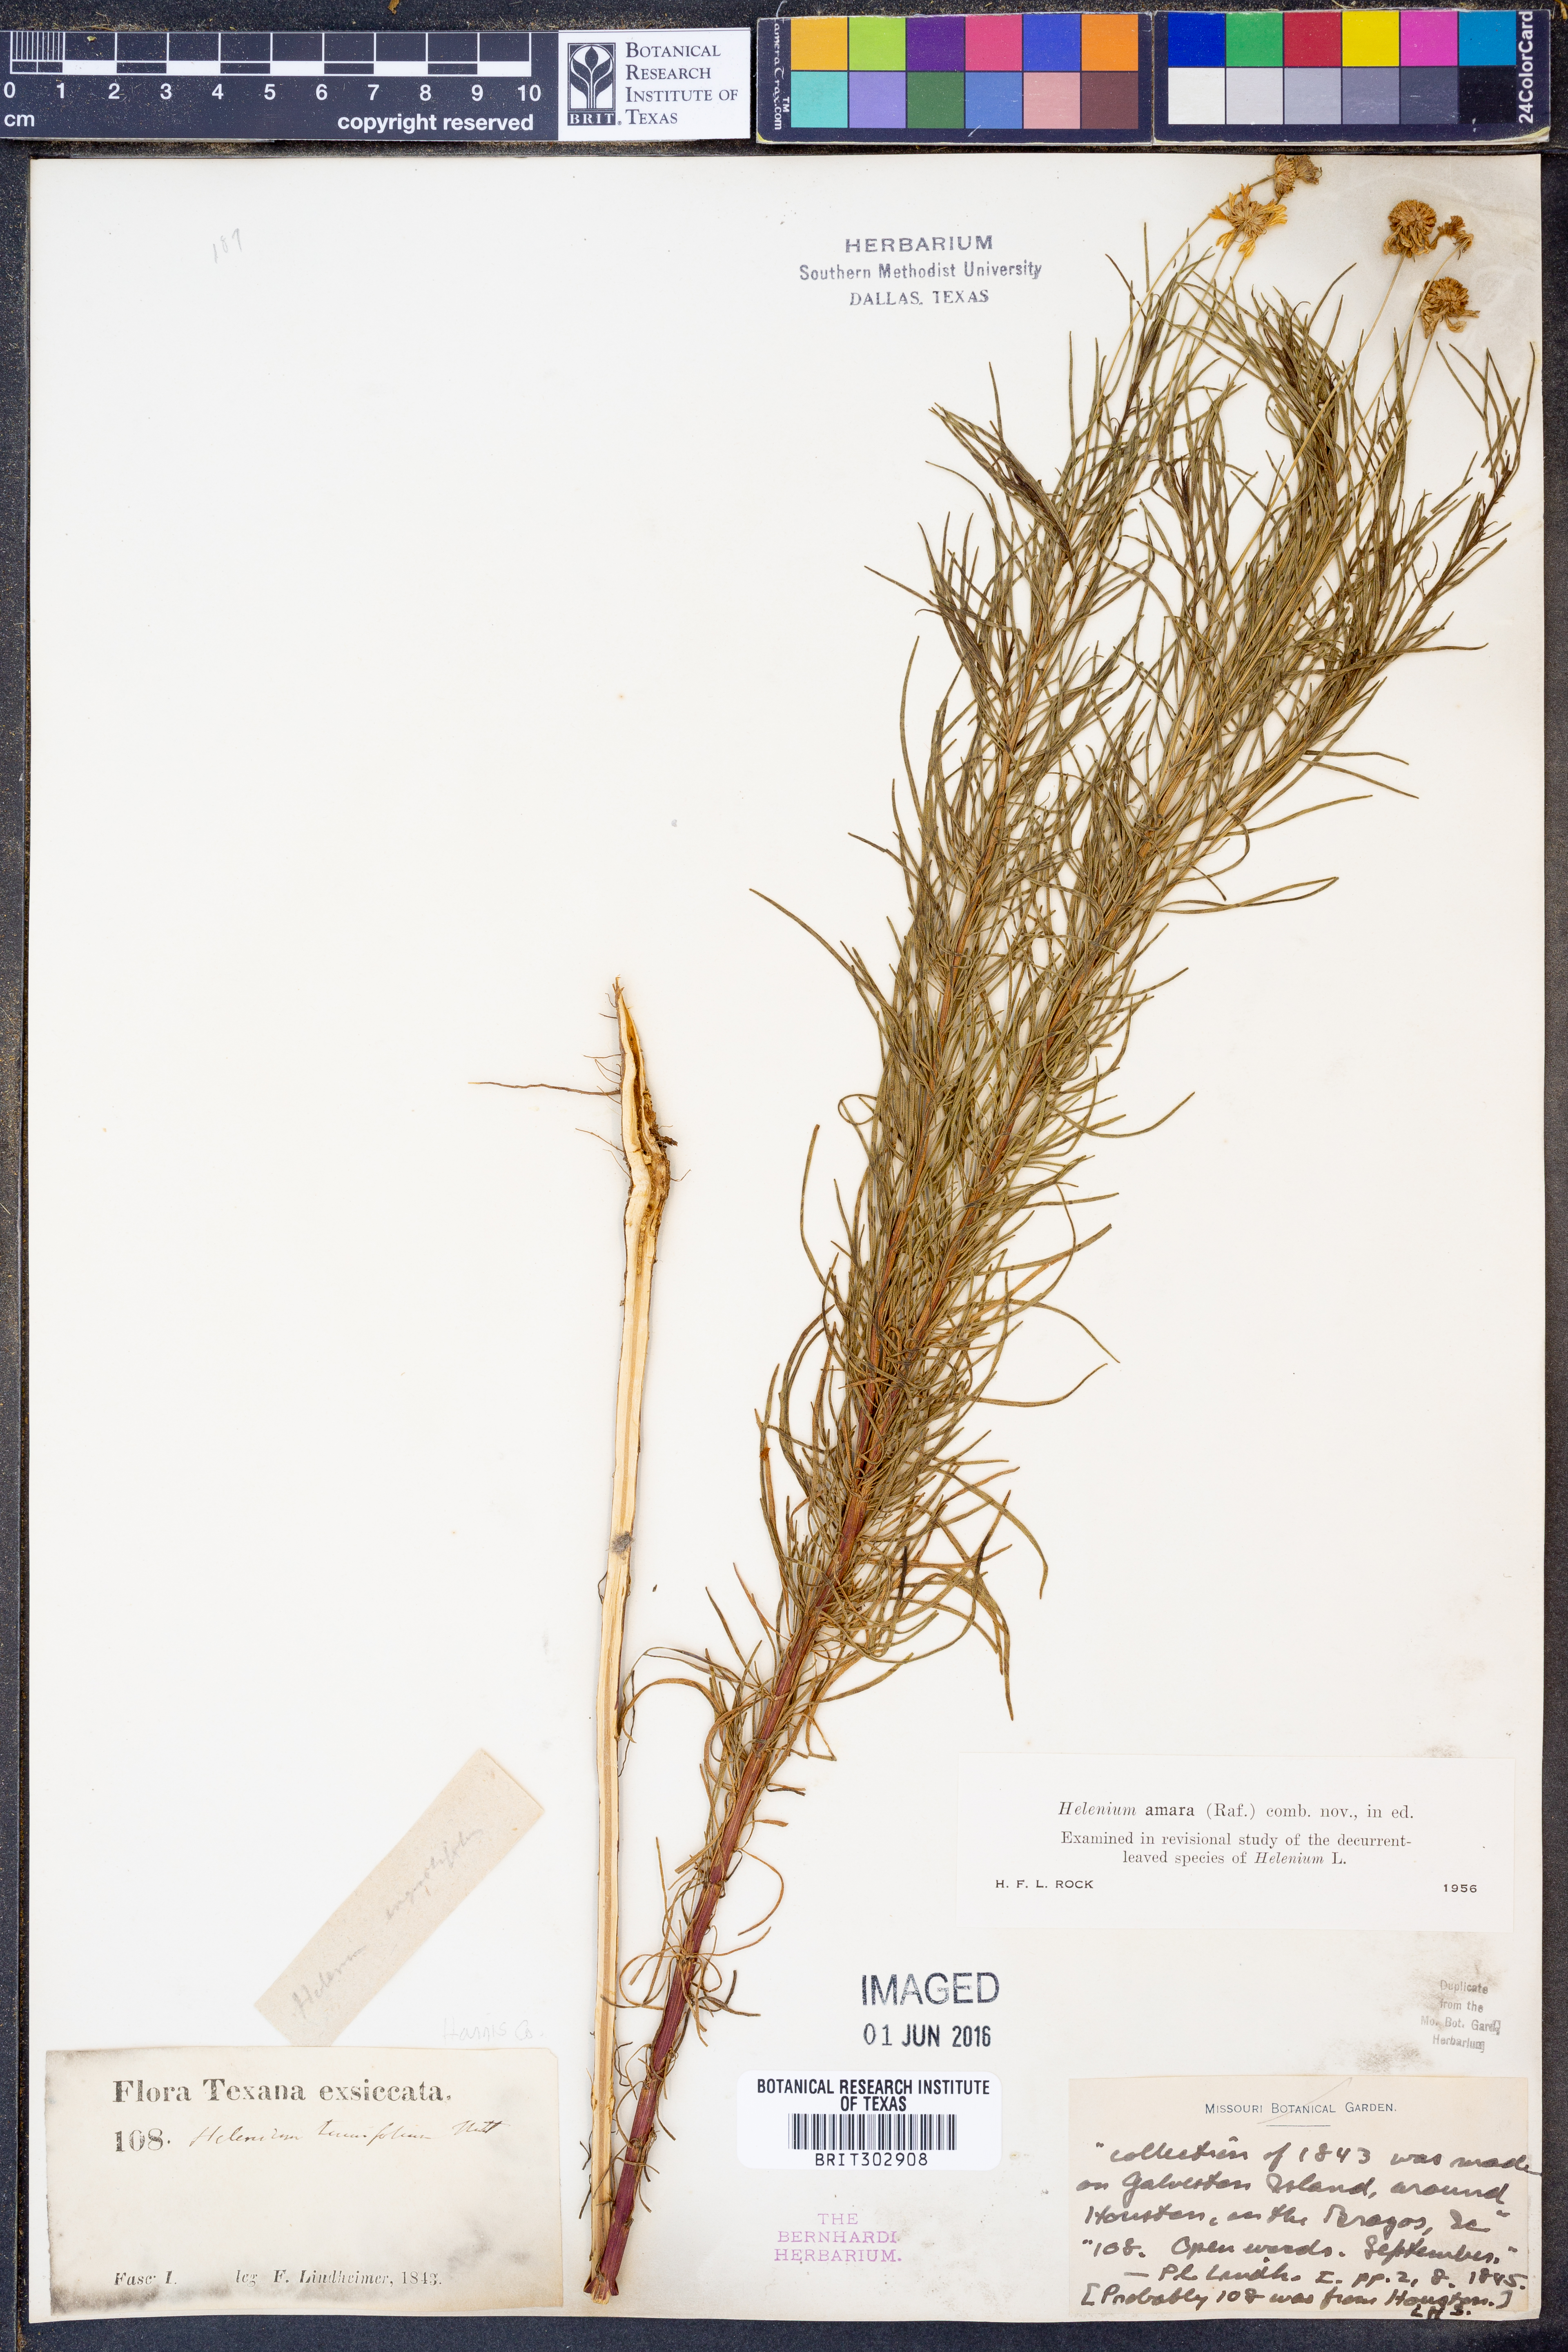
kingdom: Plantae
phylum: Tracheophyta
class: Magnoliopsida
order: Asterales
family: Asteraceae
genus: Helenium
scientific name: Helenium amarum
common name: Bitter sneezeweed
